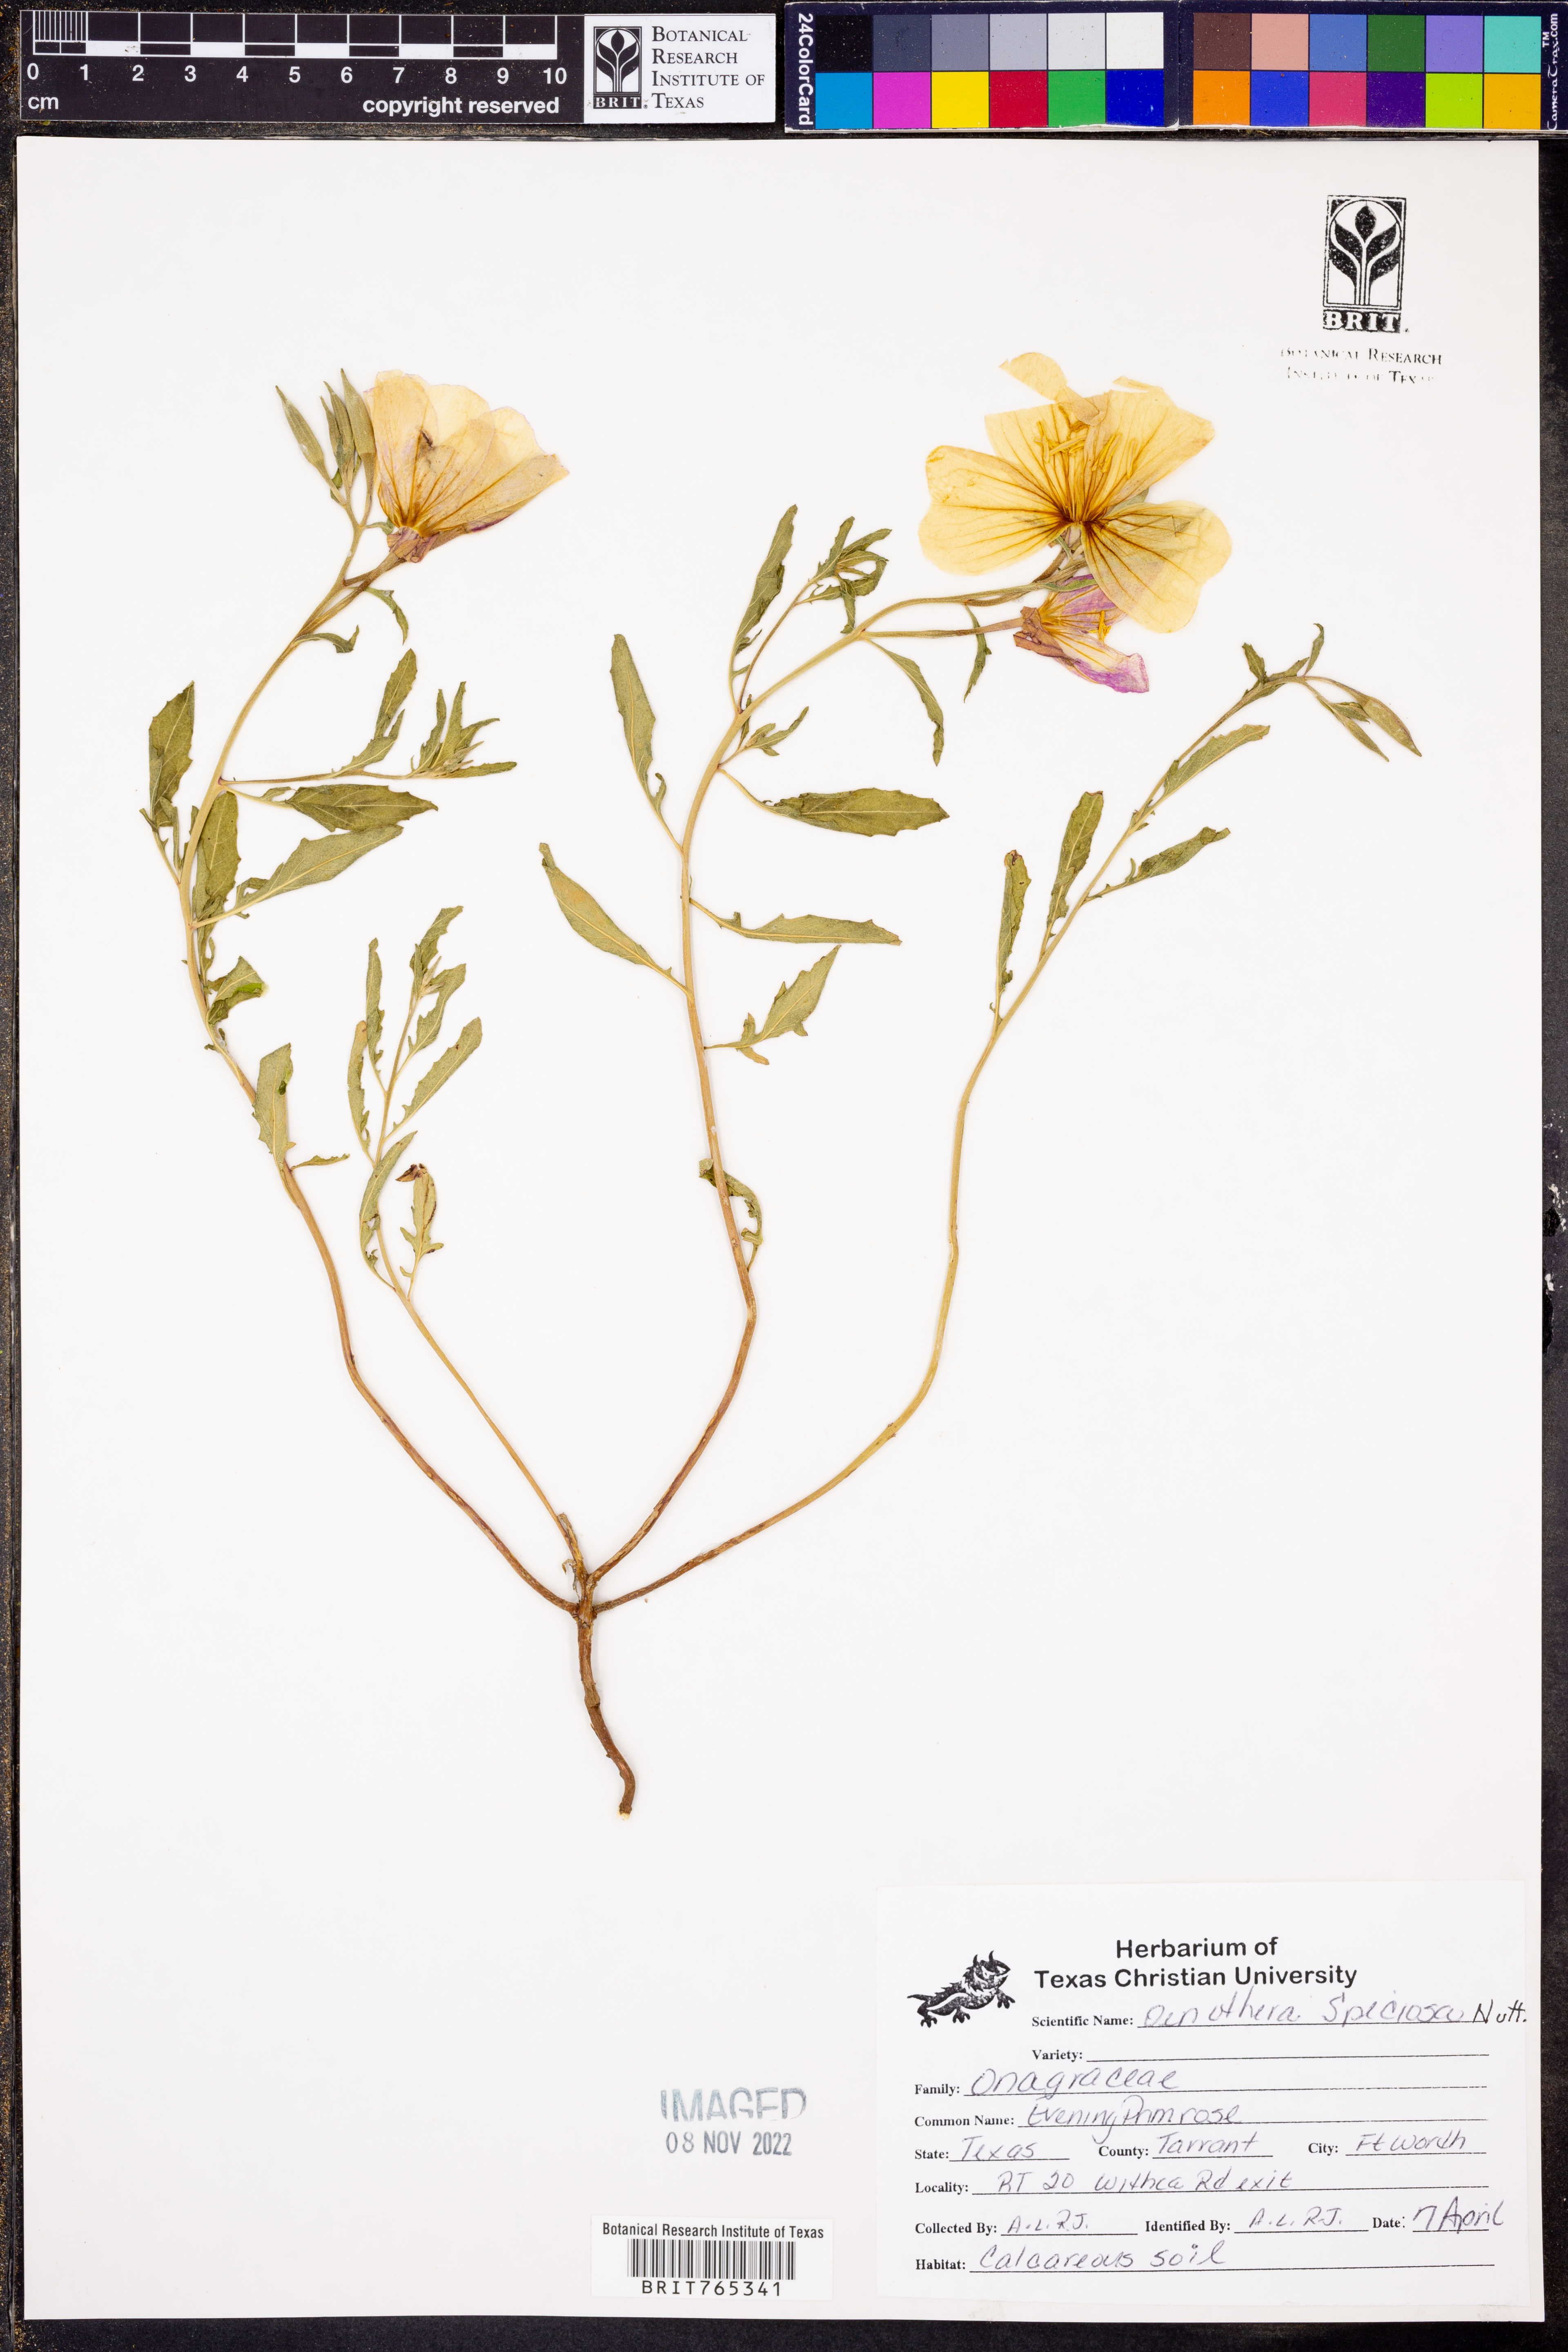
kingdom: Plantae
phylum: Tracheophyta
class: Magnoliopsida
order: Myrtales
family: Onagraceae
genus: Oenothera
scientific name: Oenothera speciosa
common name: White evening-primrose
